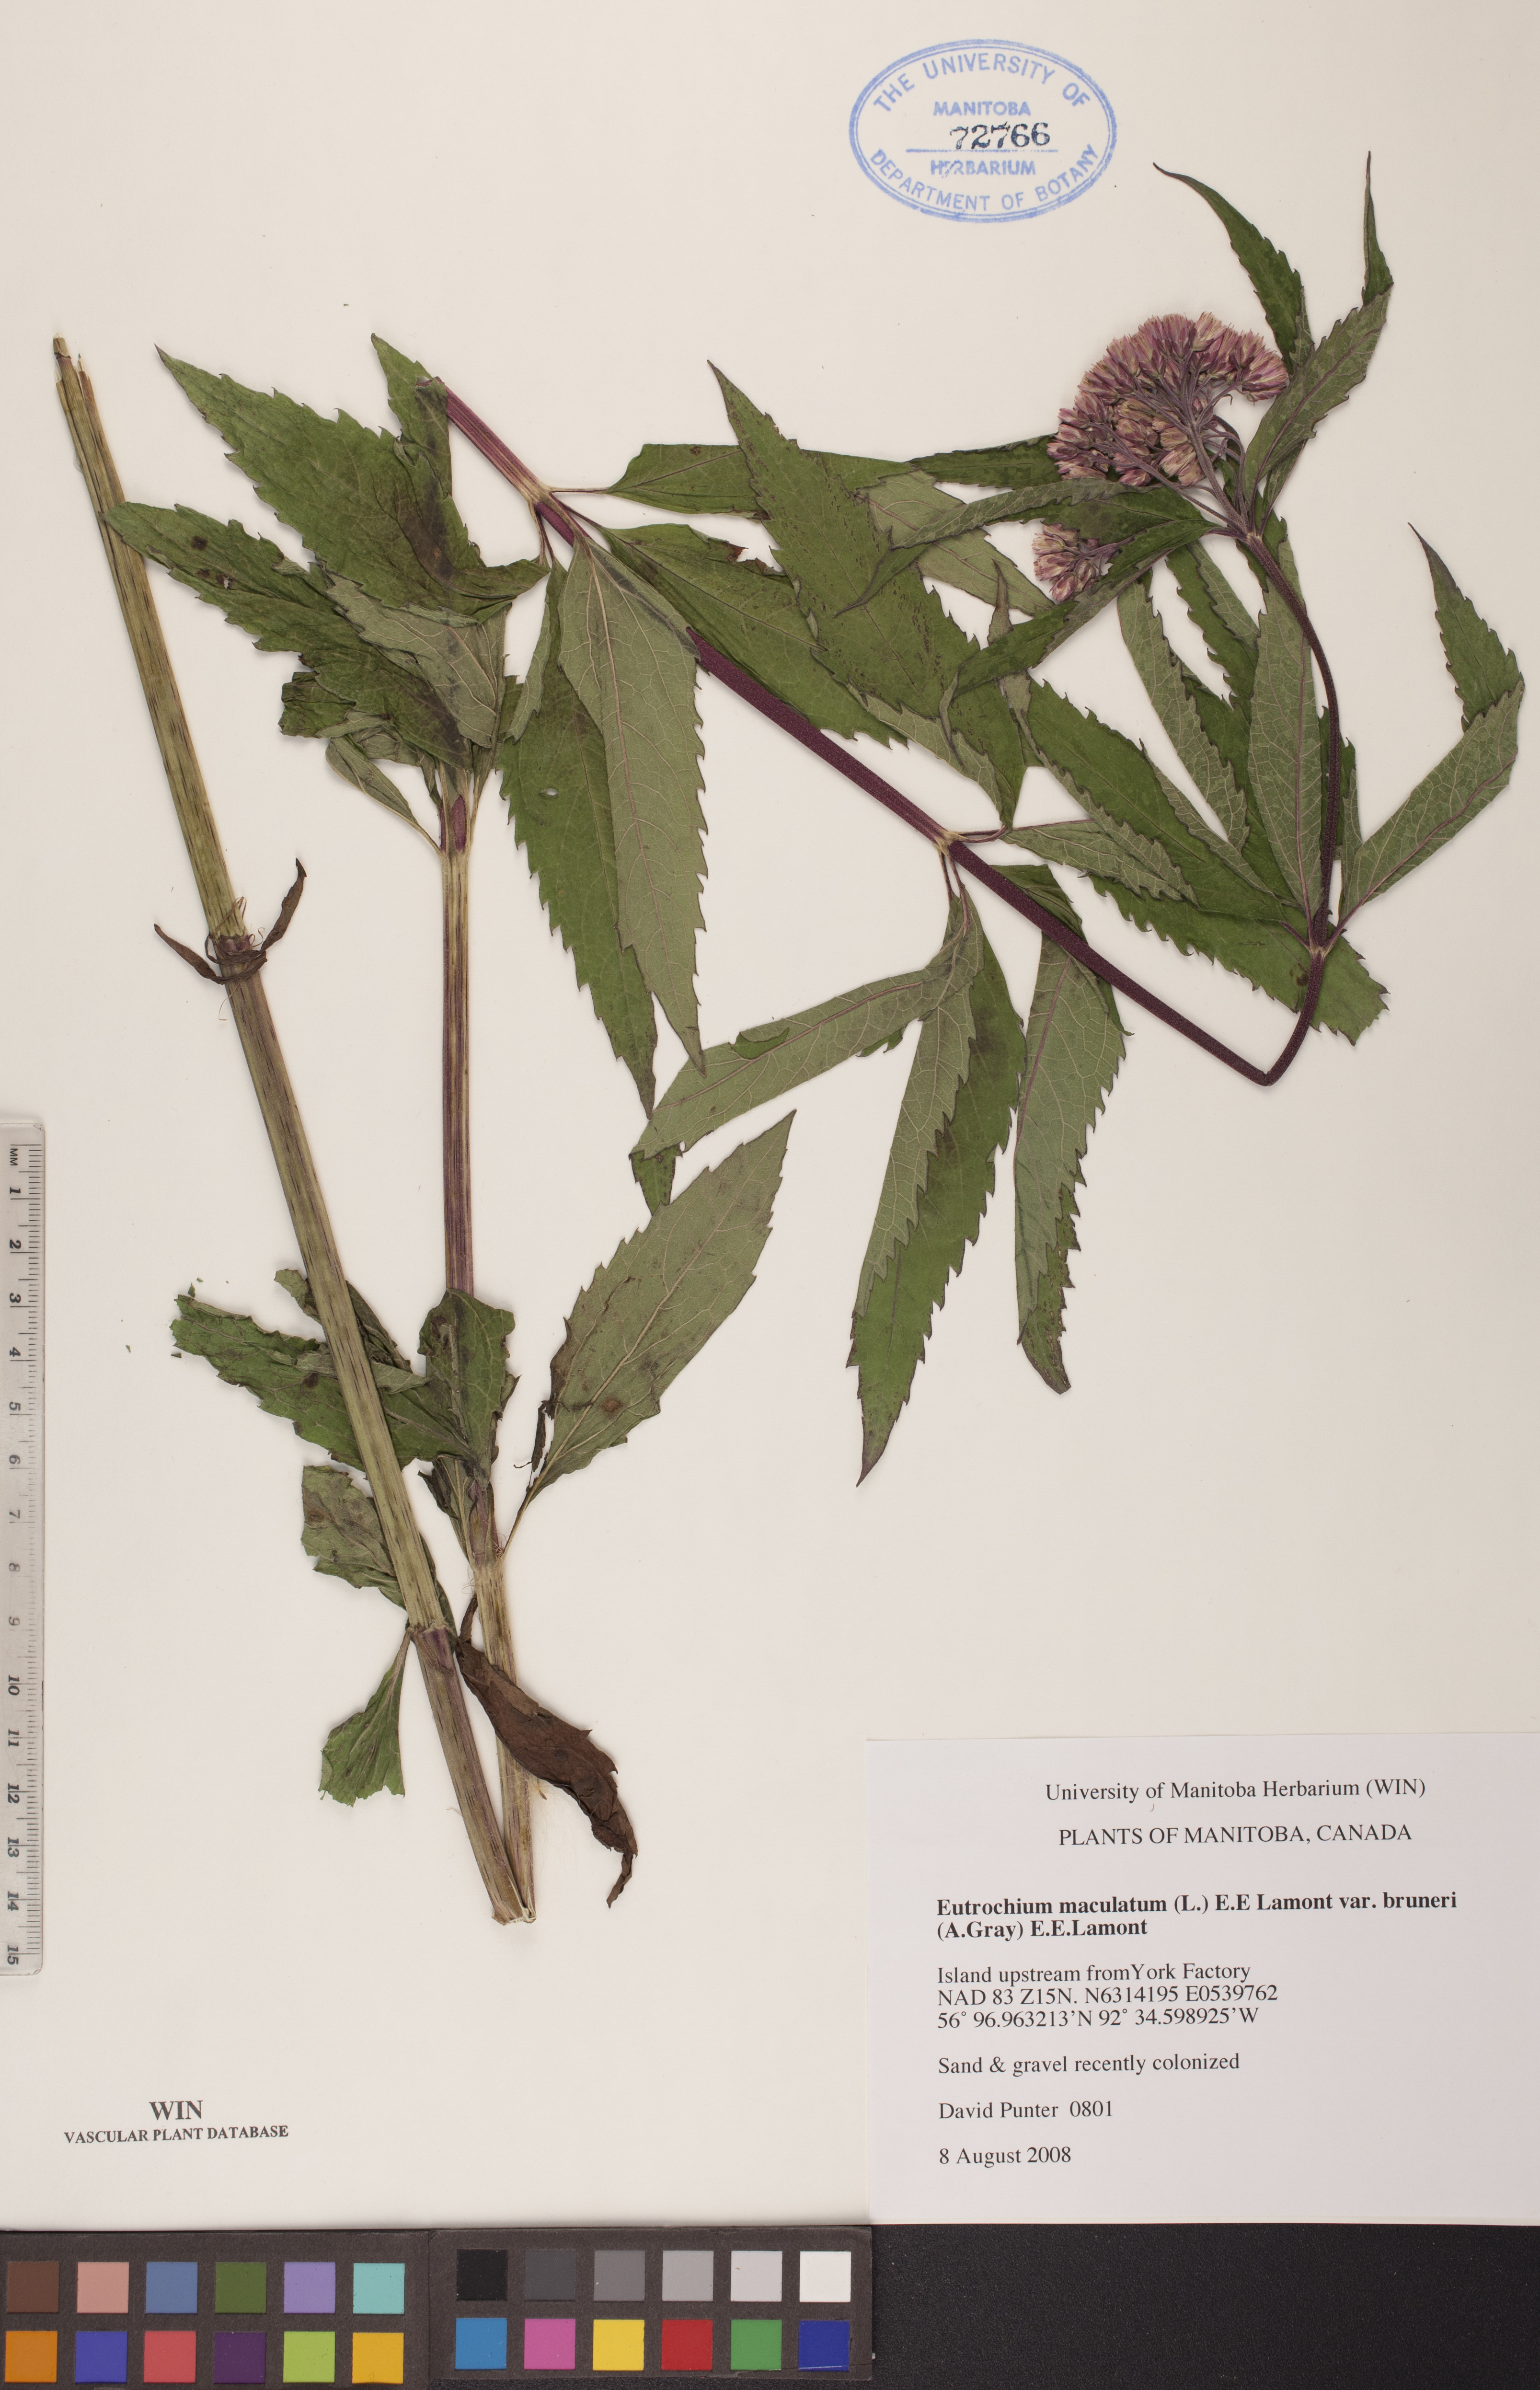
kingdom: Plantae
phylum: Tracheophyta
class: Magnoliopsida
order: Asterales
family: Asteraceae
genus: Eutrochium
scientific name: Eutrochium maculatum
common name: Spotted joe pye weed
